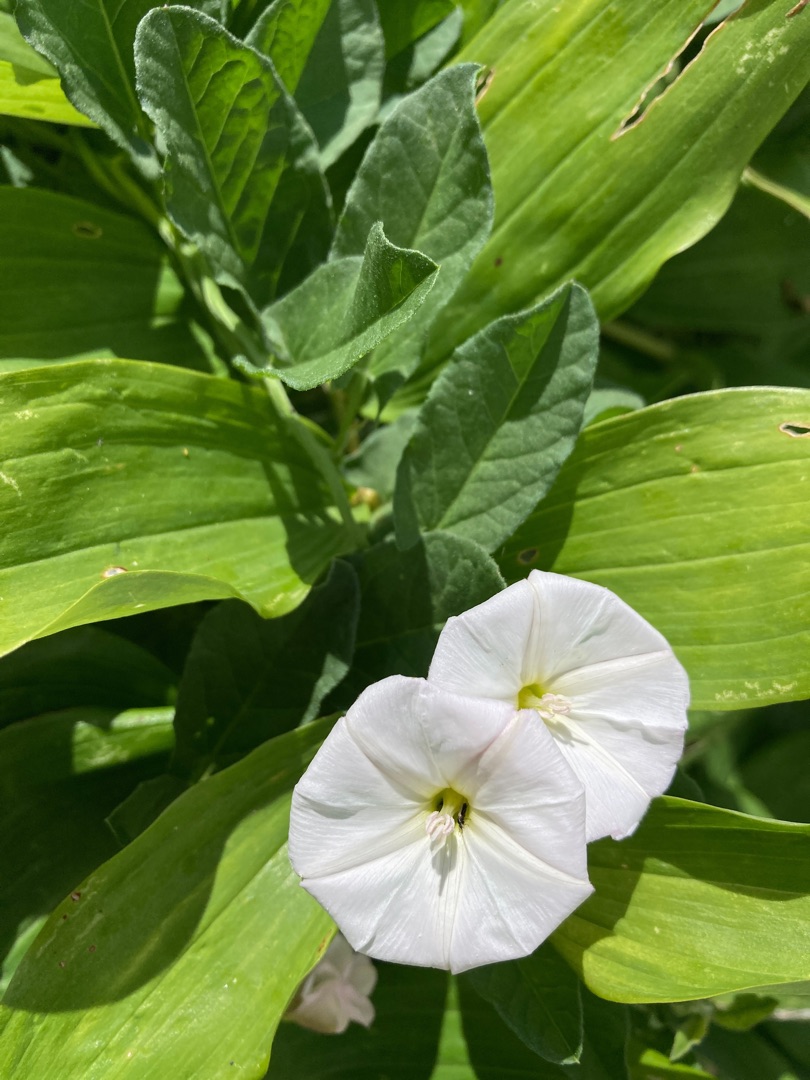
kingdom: Plantae
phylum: Tracheophyta
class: Magnoliopsida
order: Solanales
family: Convolvulaceae
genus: Convolvulus
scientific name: Convolvulus arvensis
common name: Ager-snerle
